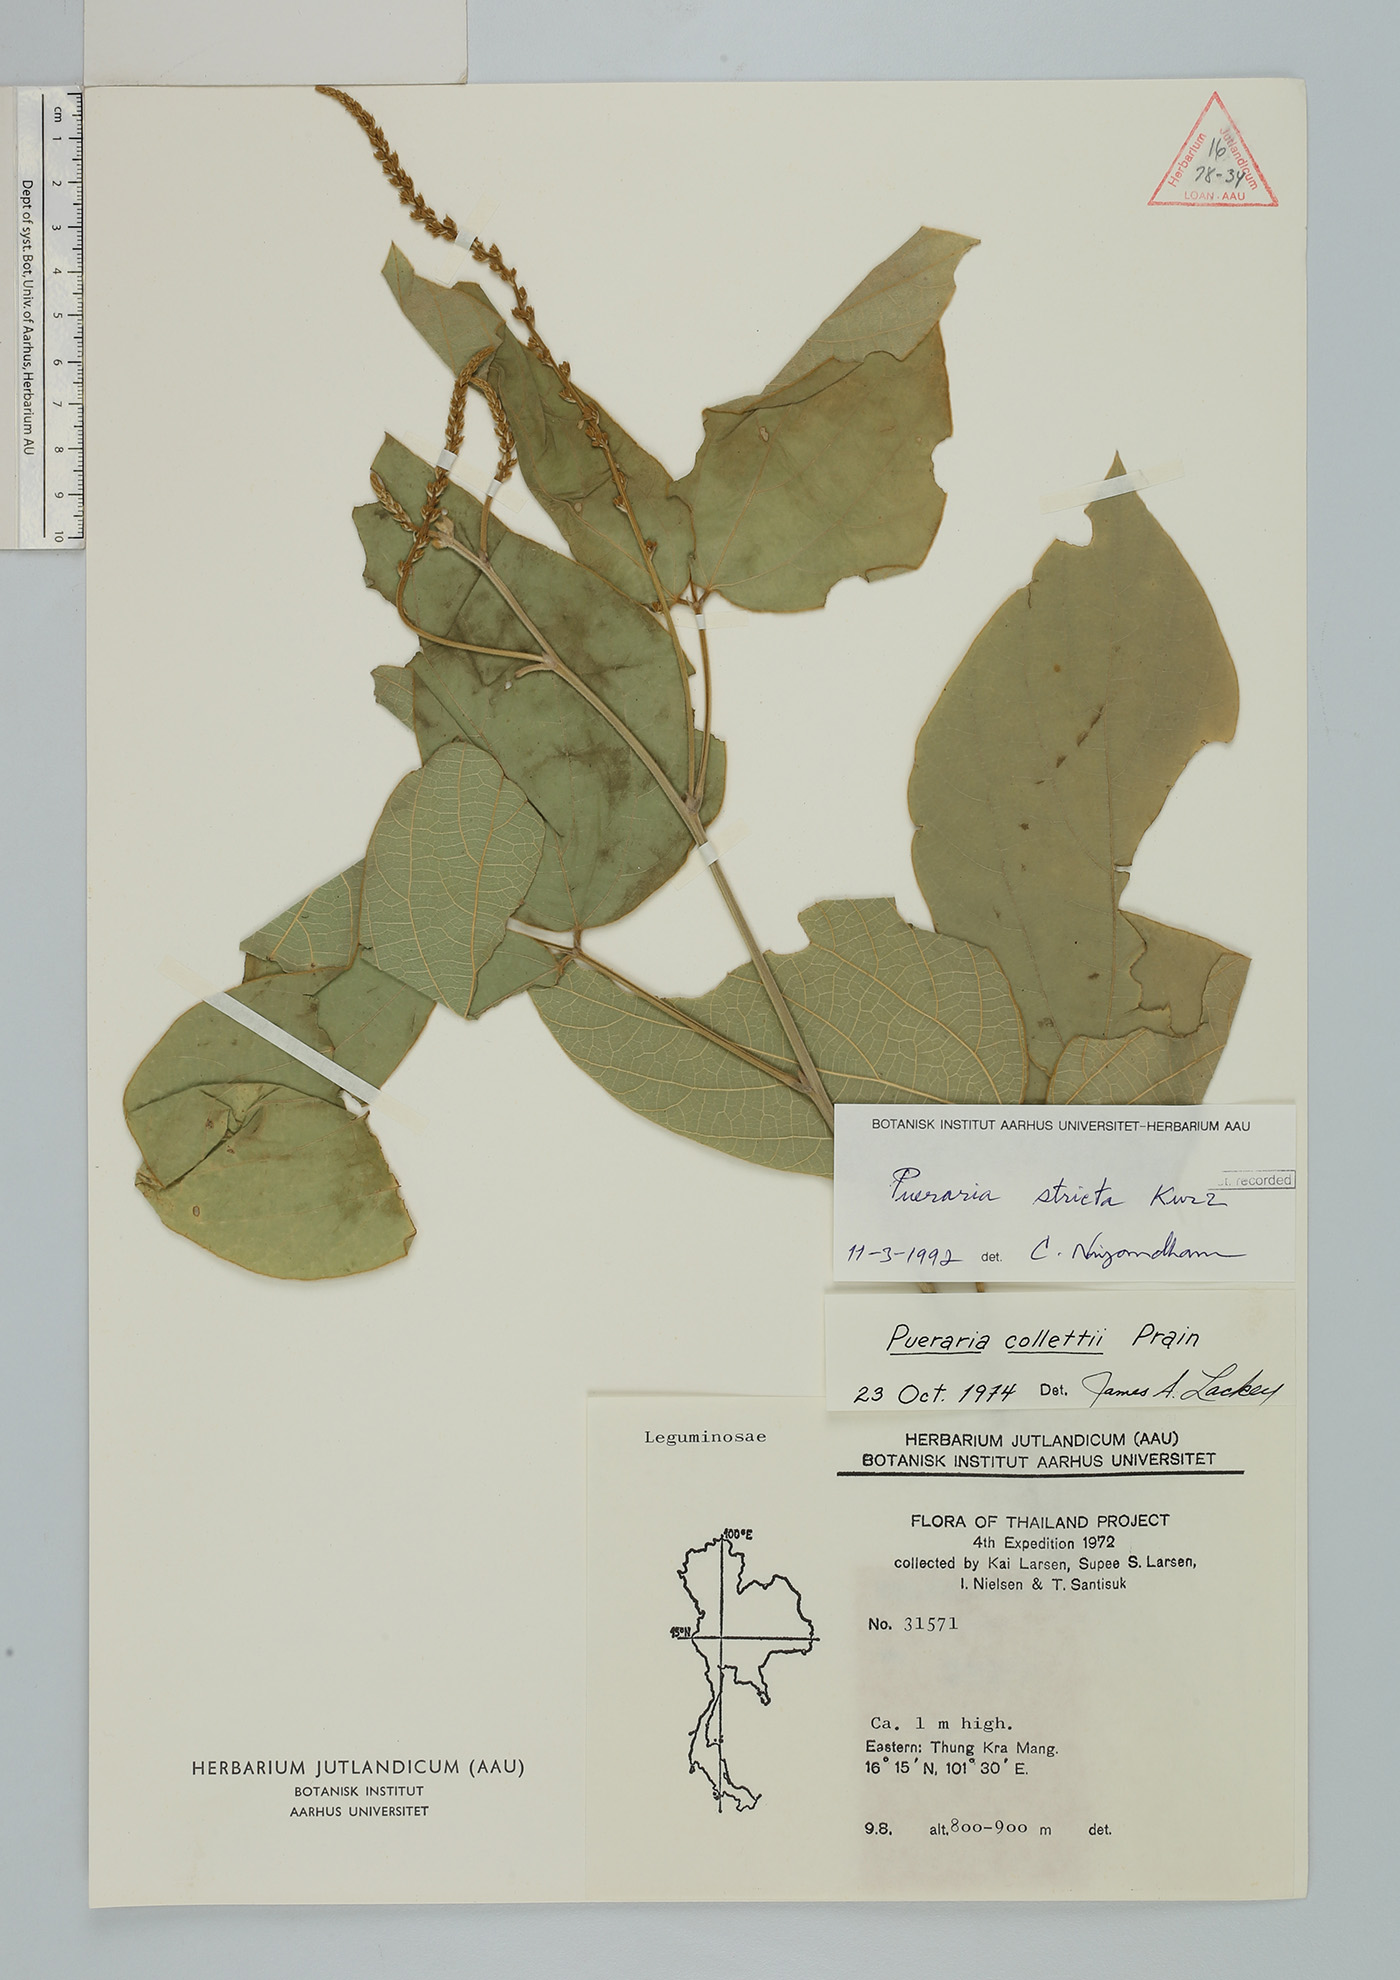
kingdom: Plantae
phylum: Tracheophyta
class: Magnoliopsida
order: Fabales
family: Fabaceae
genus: Teyleria
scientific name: Teyleria stricta
